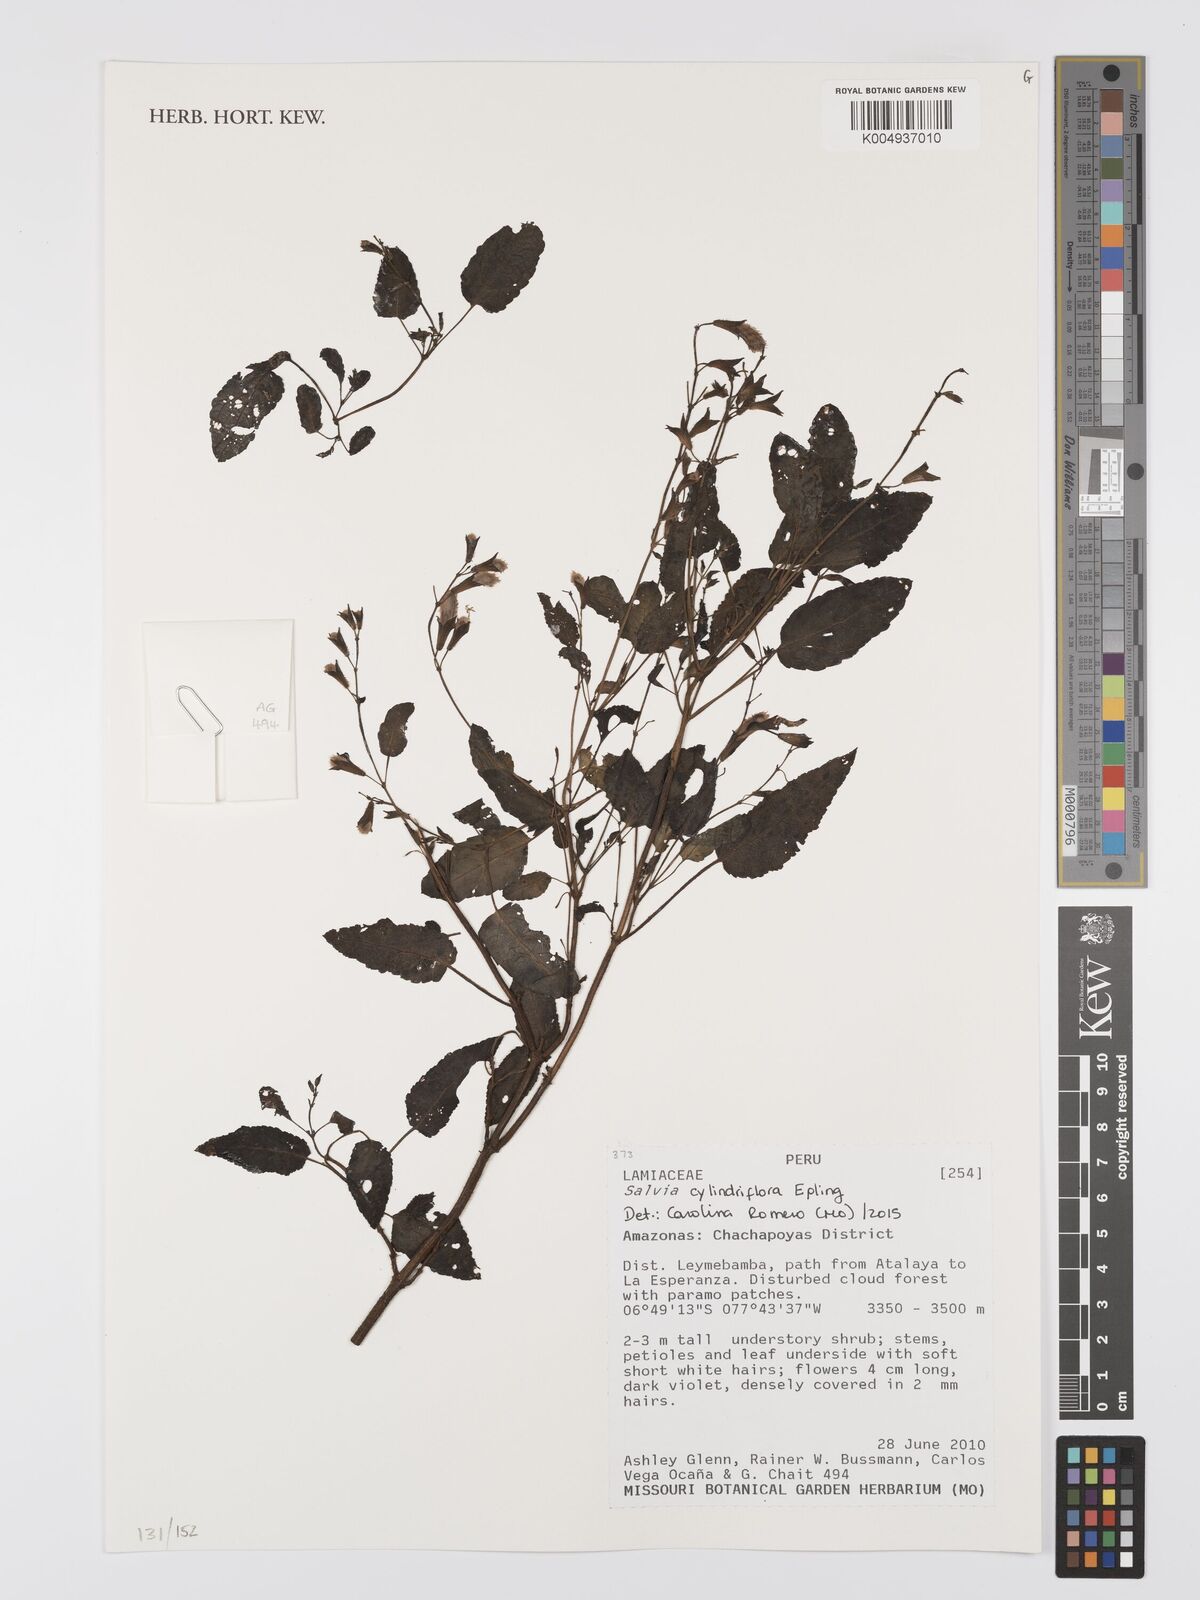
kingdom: Plantae
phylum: Tracheophyta
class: Magnoliopsida
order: Lamiales
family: Lamiaceae
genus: Salvia
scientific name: Salvia cylindriflora
